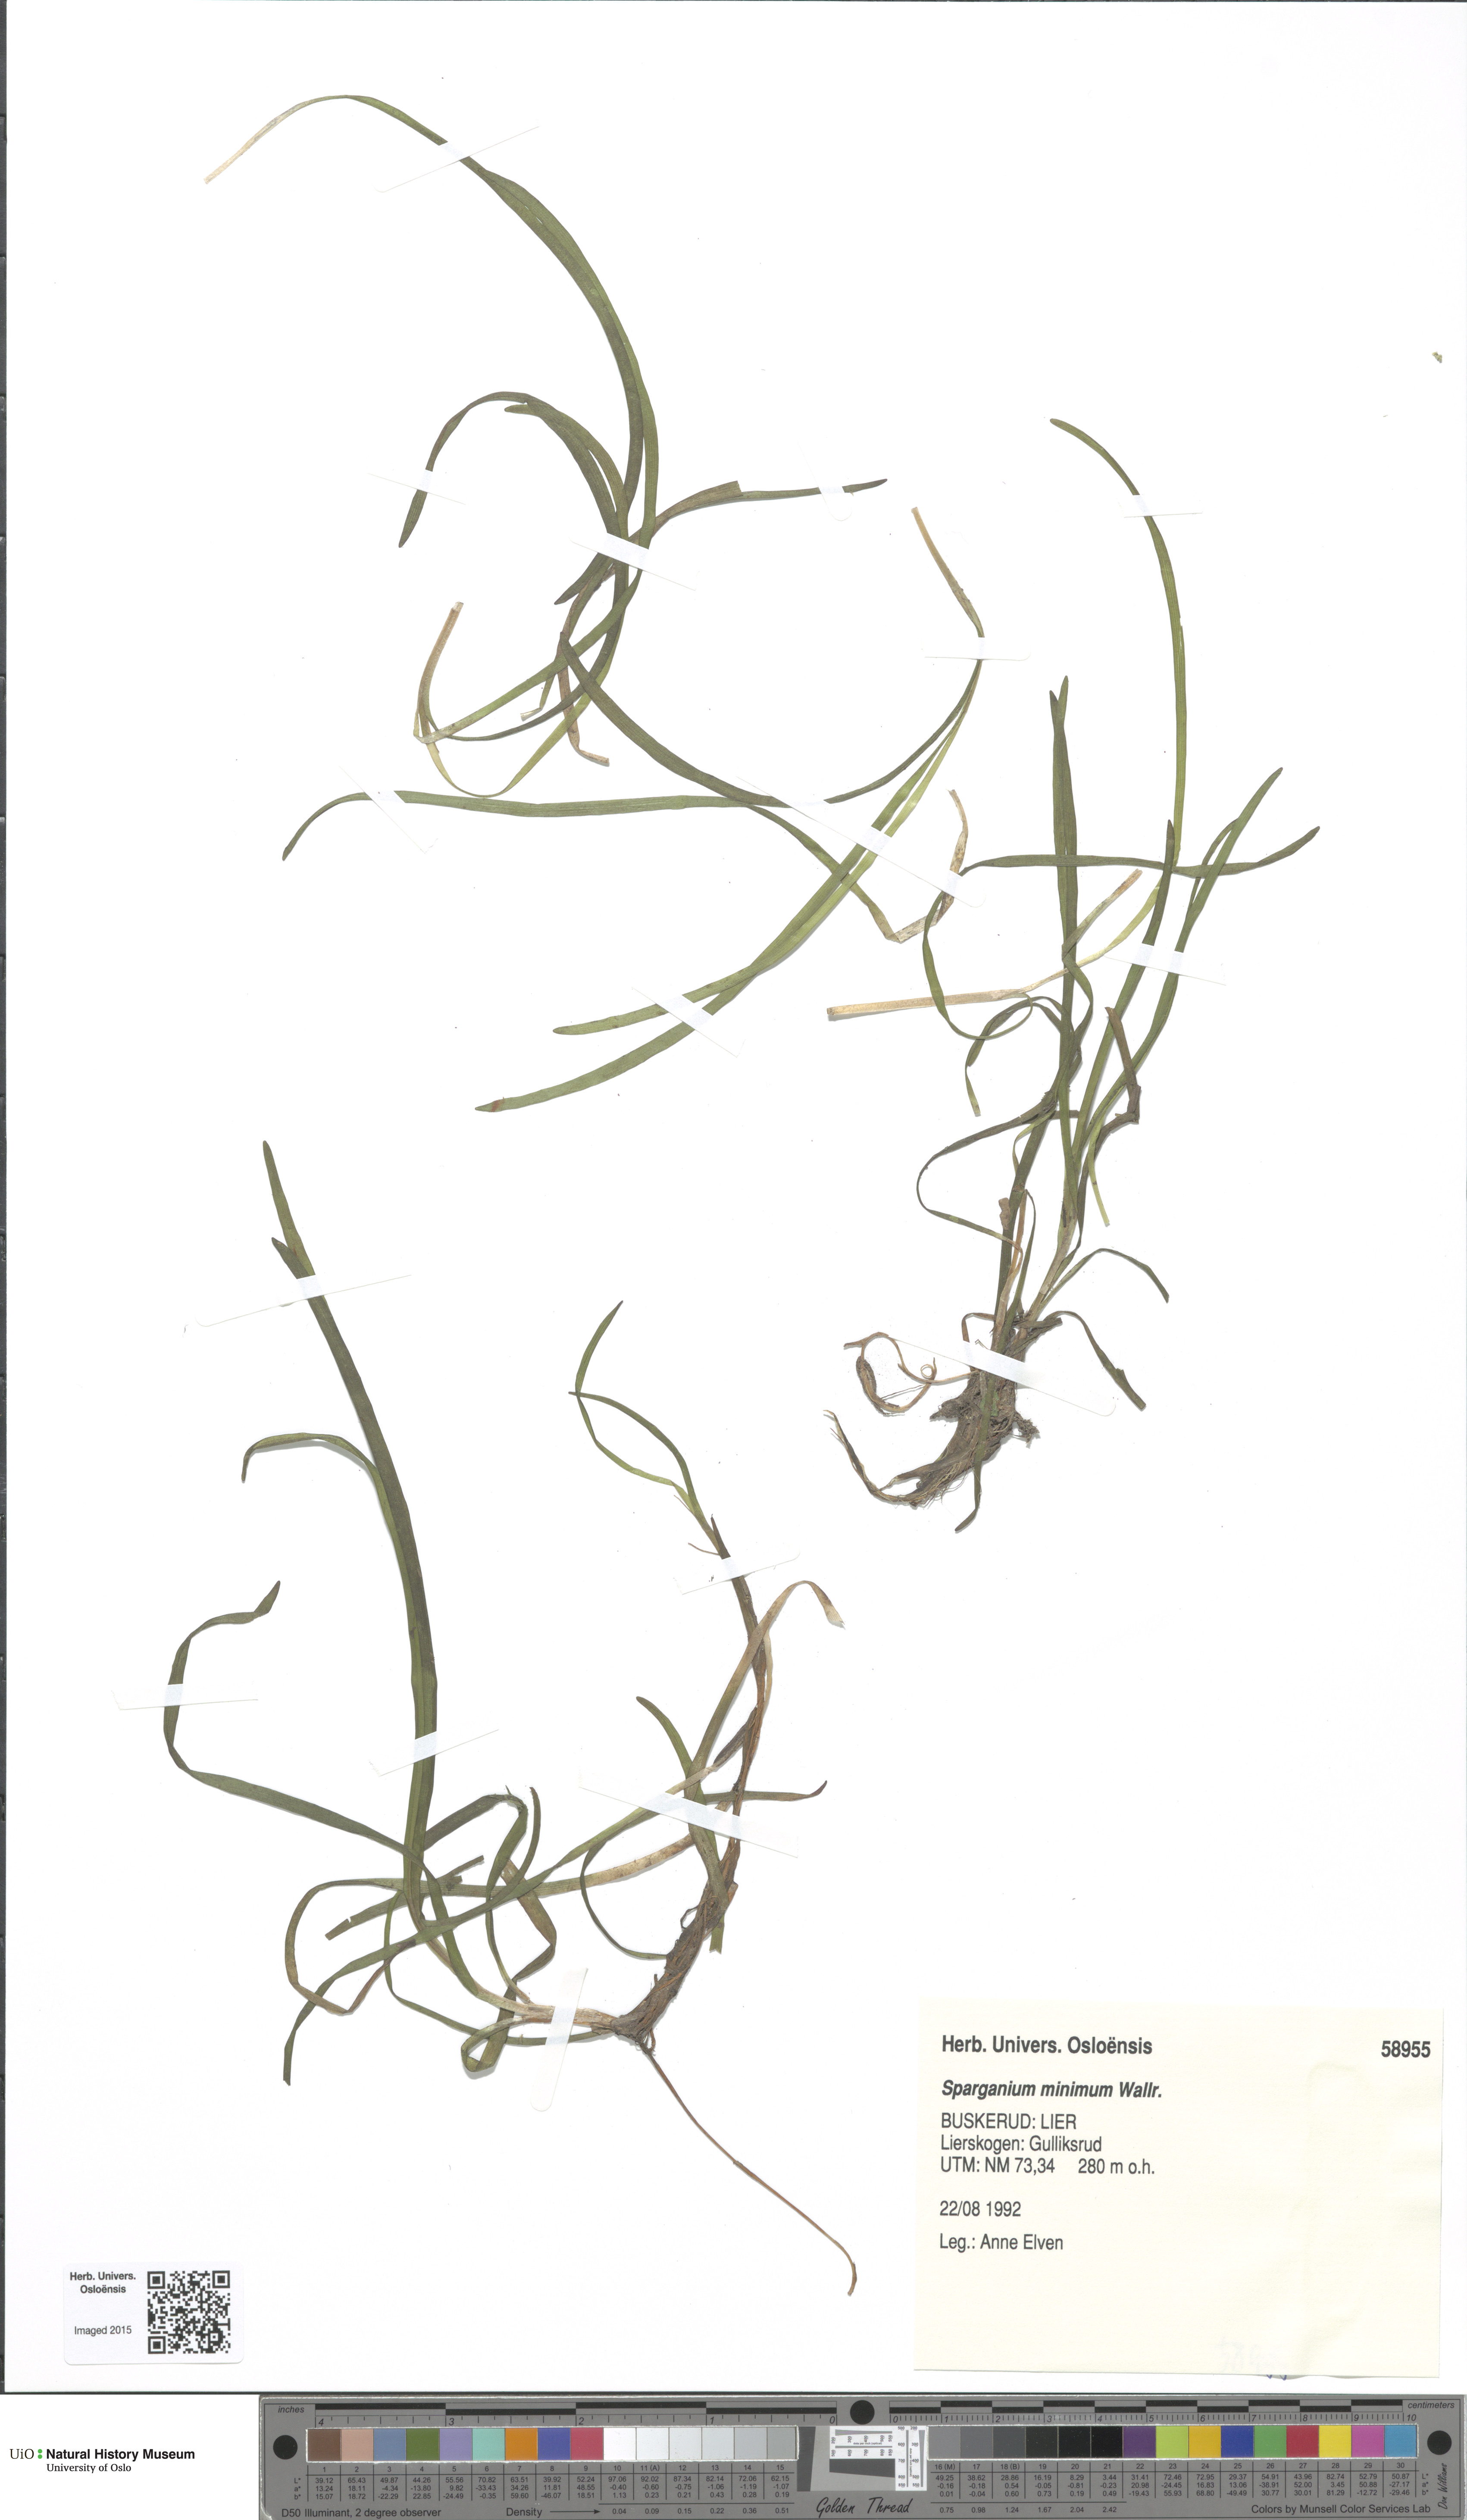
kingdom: Plantae
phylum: Tracheophyta
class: Liliopsida
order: Poales
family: Typhaceae
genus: Sparganium
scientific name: Sparganium natans
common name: Least bur-reed
